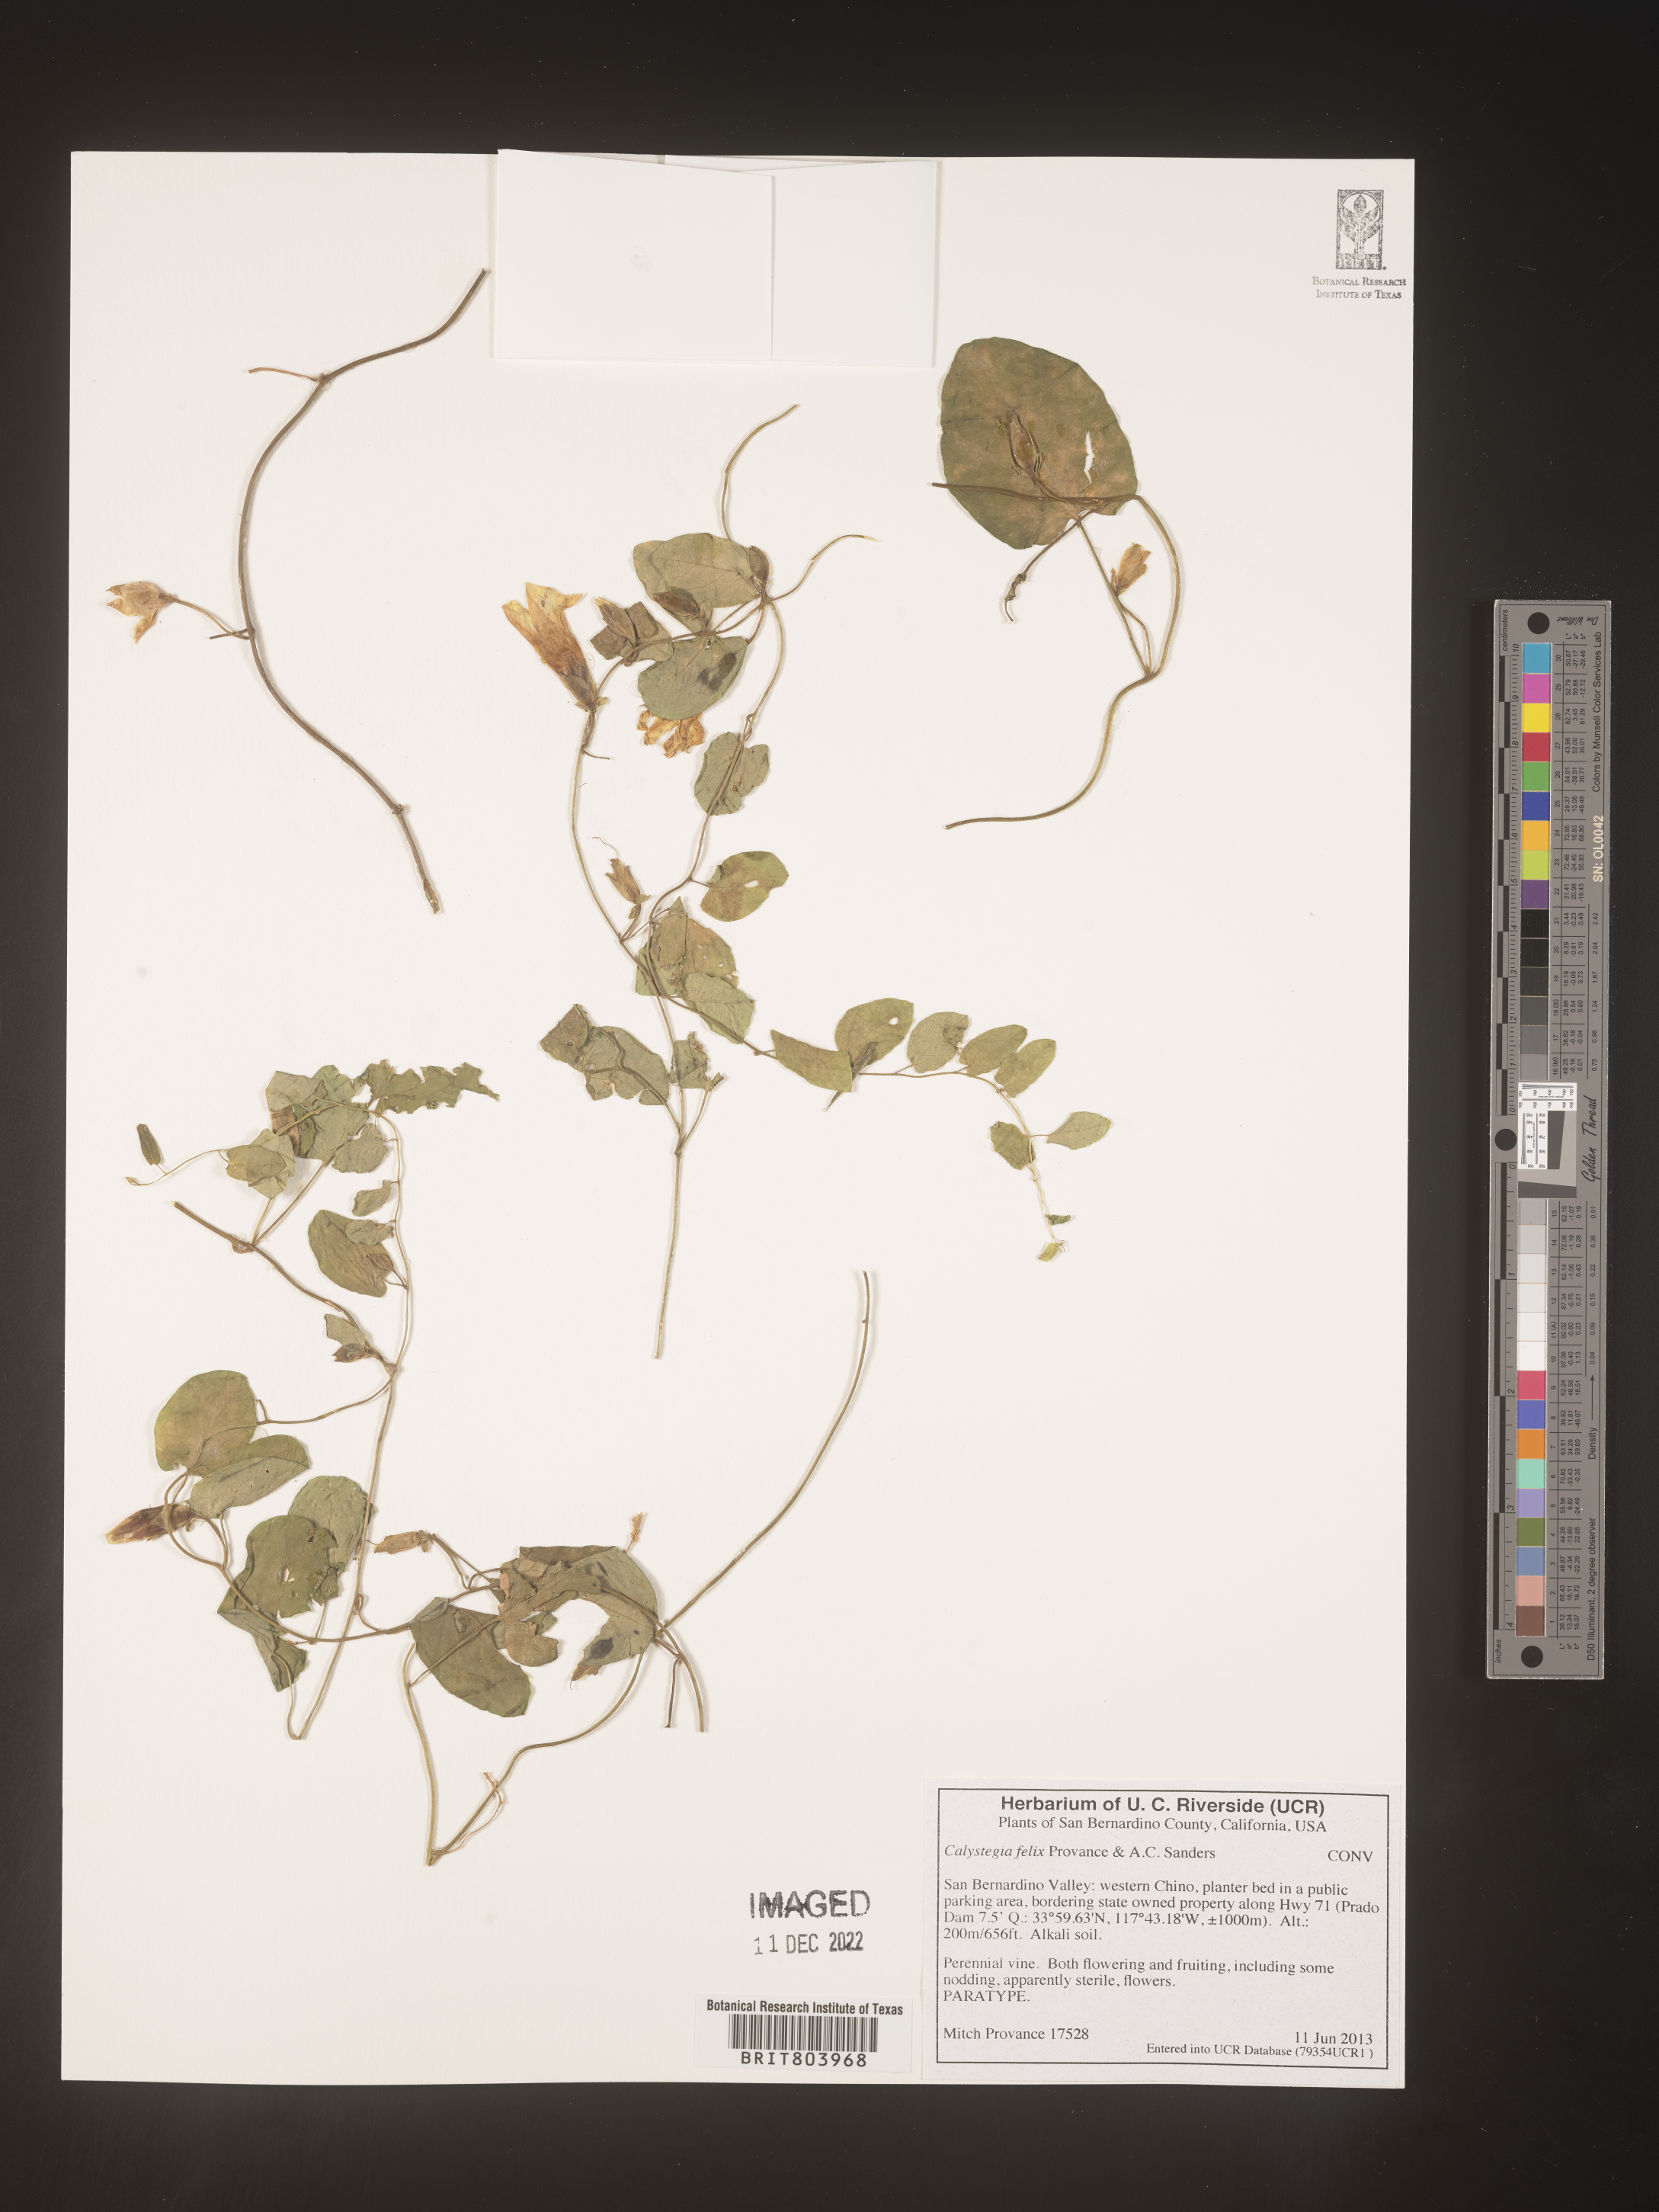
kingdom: Plantae
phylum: Tracheophyta
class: Magnoliopsida
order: Solanales
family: Convolvulaceae
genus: Calystegia
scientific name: Calystegia
